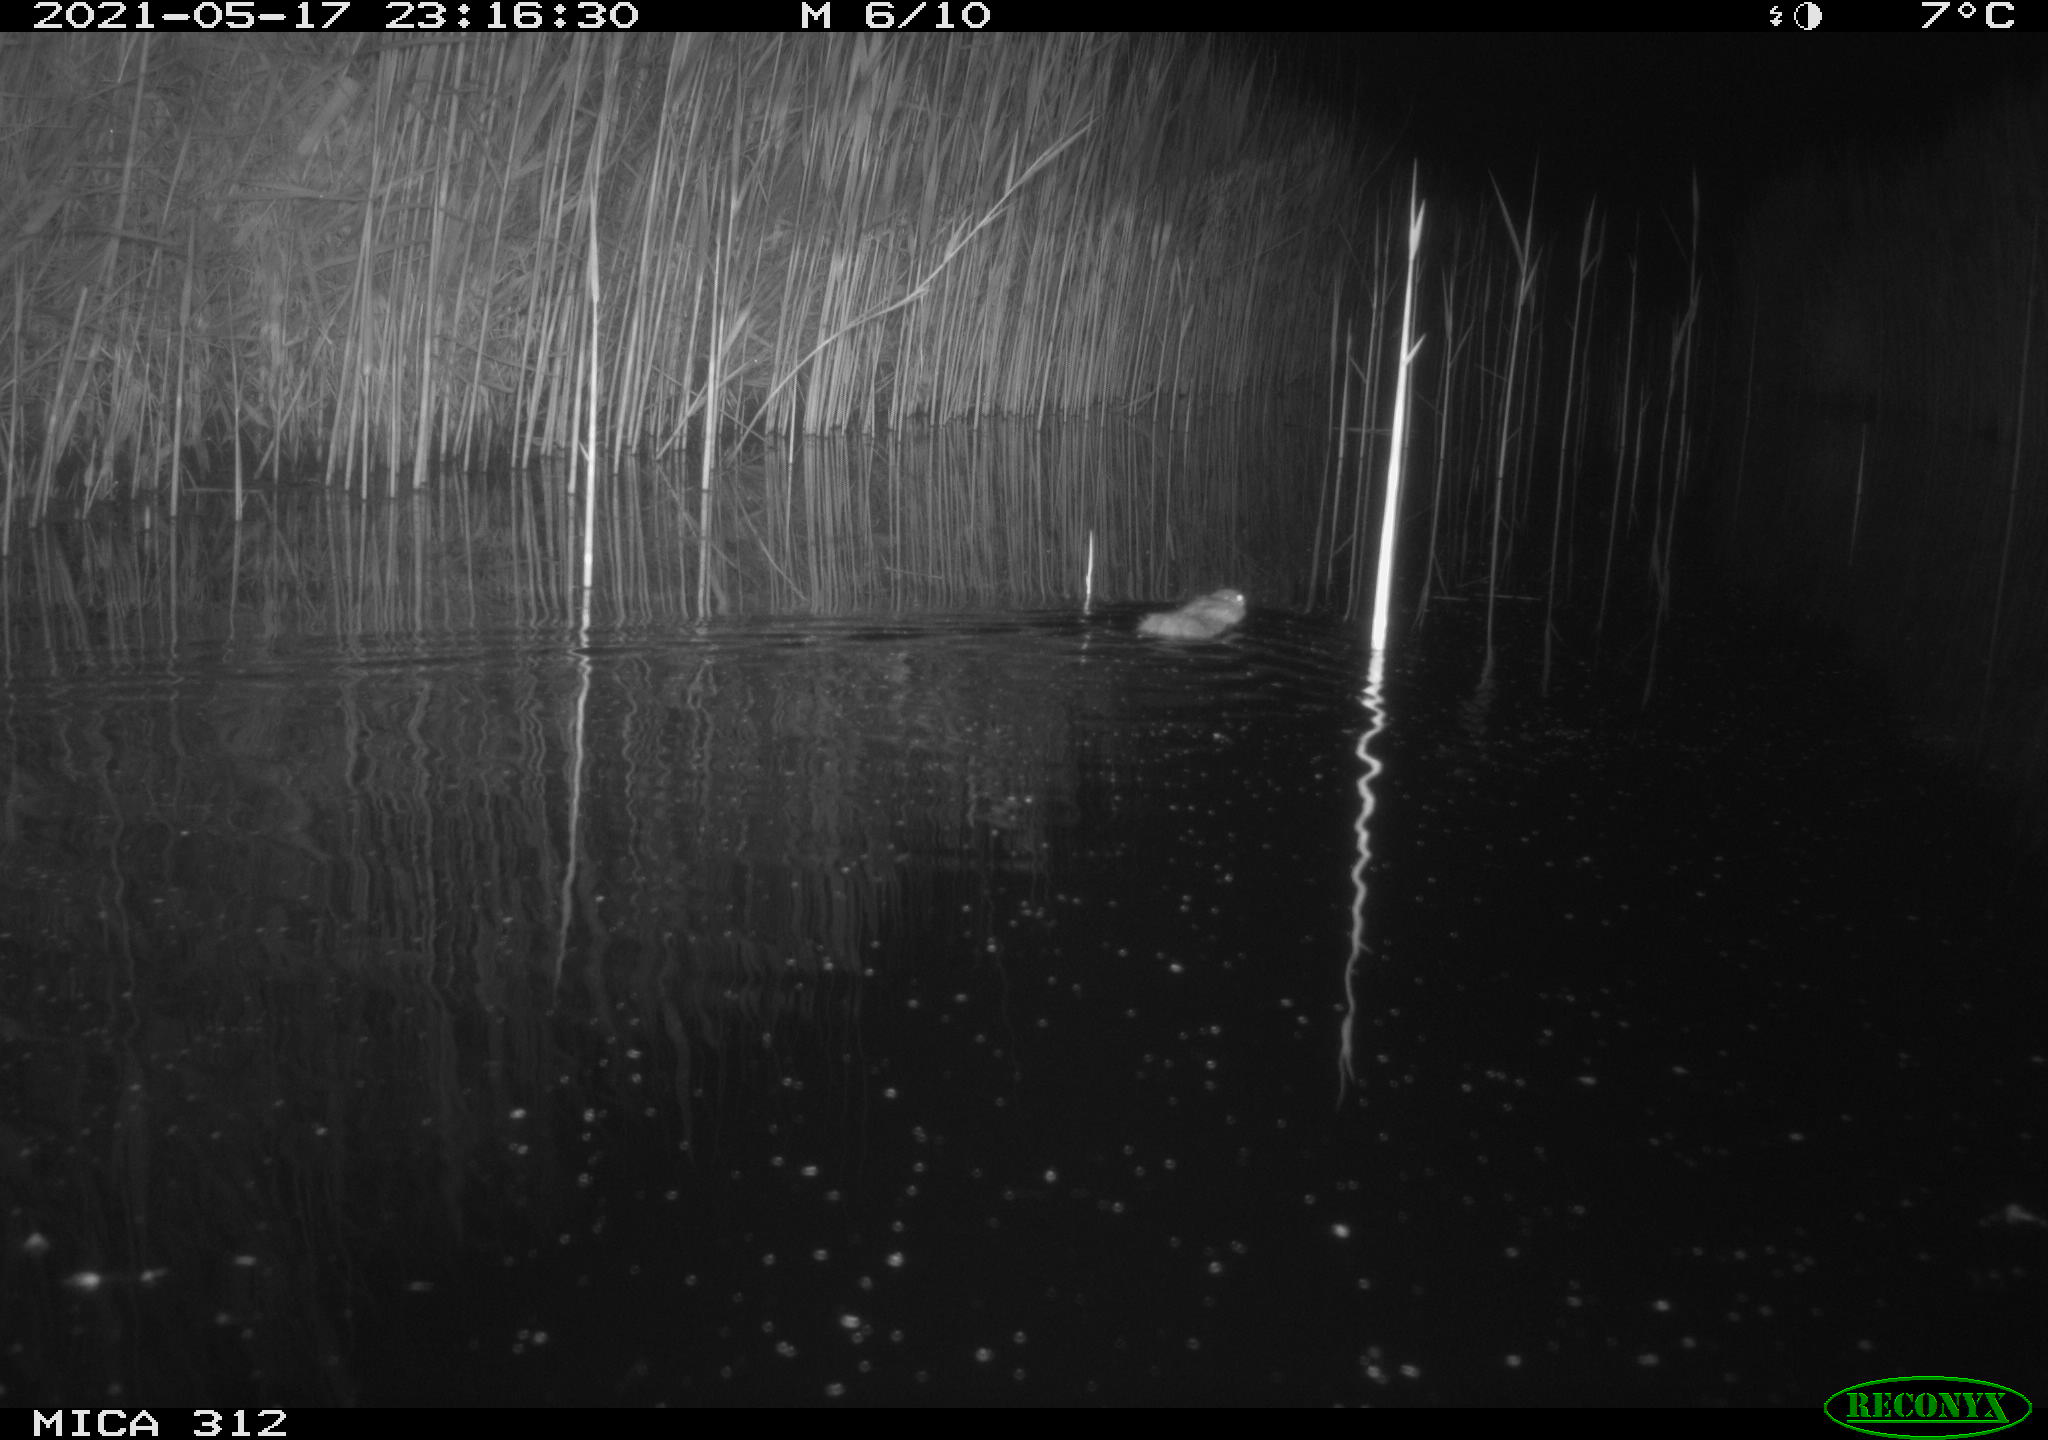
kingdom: Animalia
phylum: Chordata
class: Mammalia
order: Rodentia
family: Muridae
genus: Rattus
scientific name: Rattus norvegicus
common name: Brown rat
